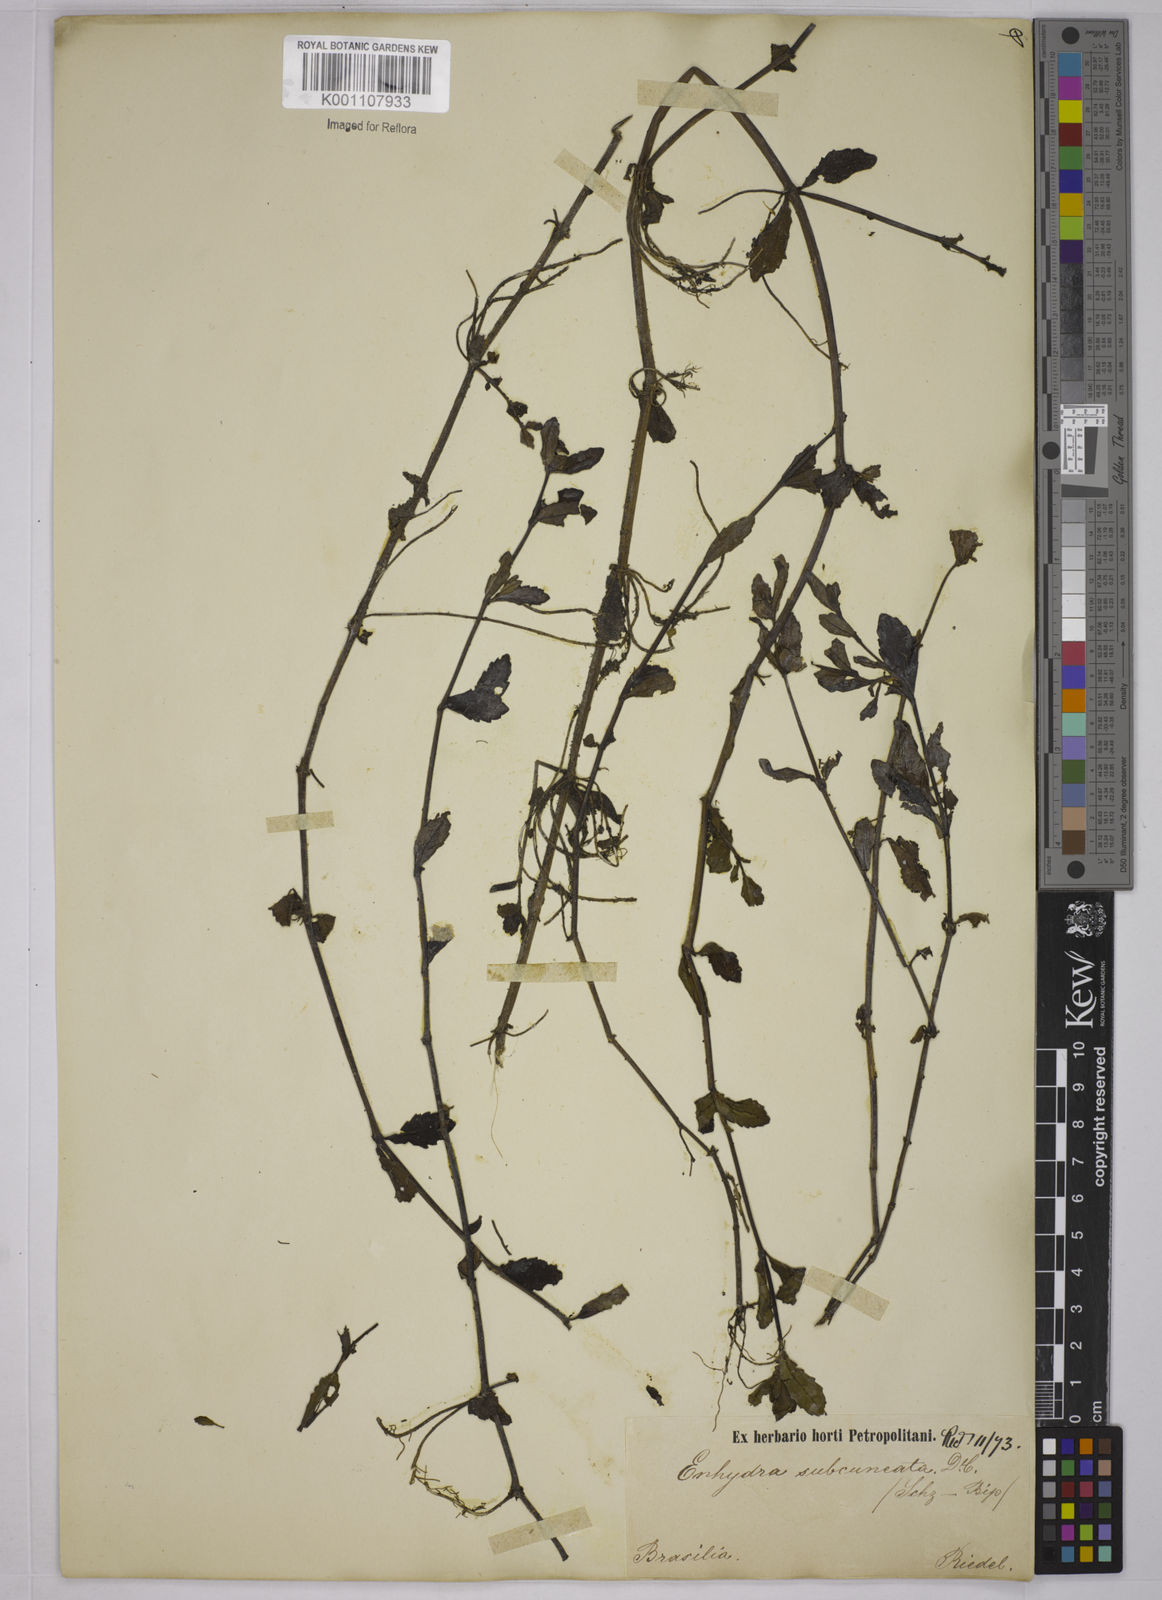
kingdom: Plantae
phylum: Tracheophyta
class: Magnoliopsida
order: Asterales
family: Asteraceae
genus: Enydra
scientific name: Enydra sessilis
